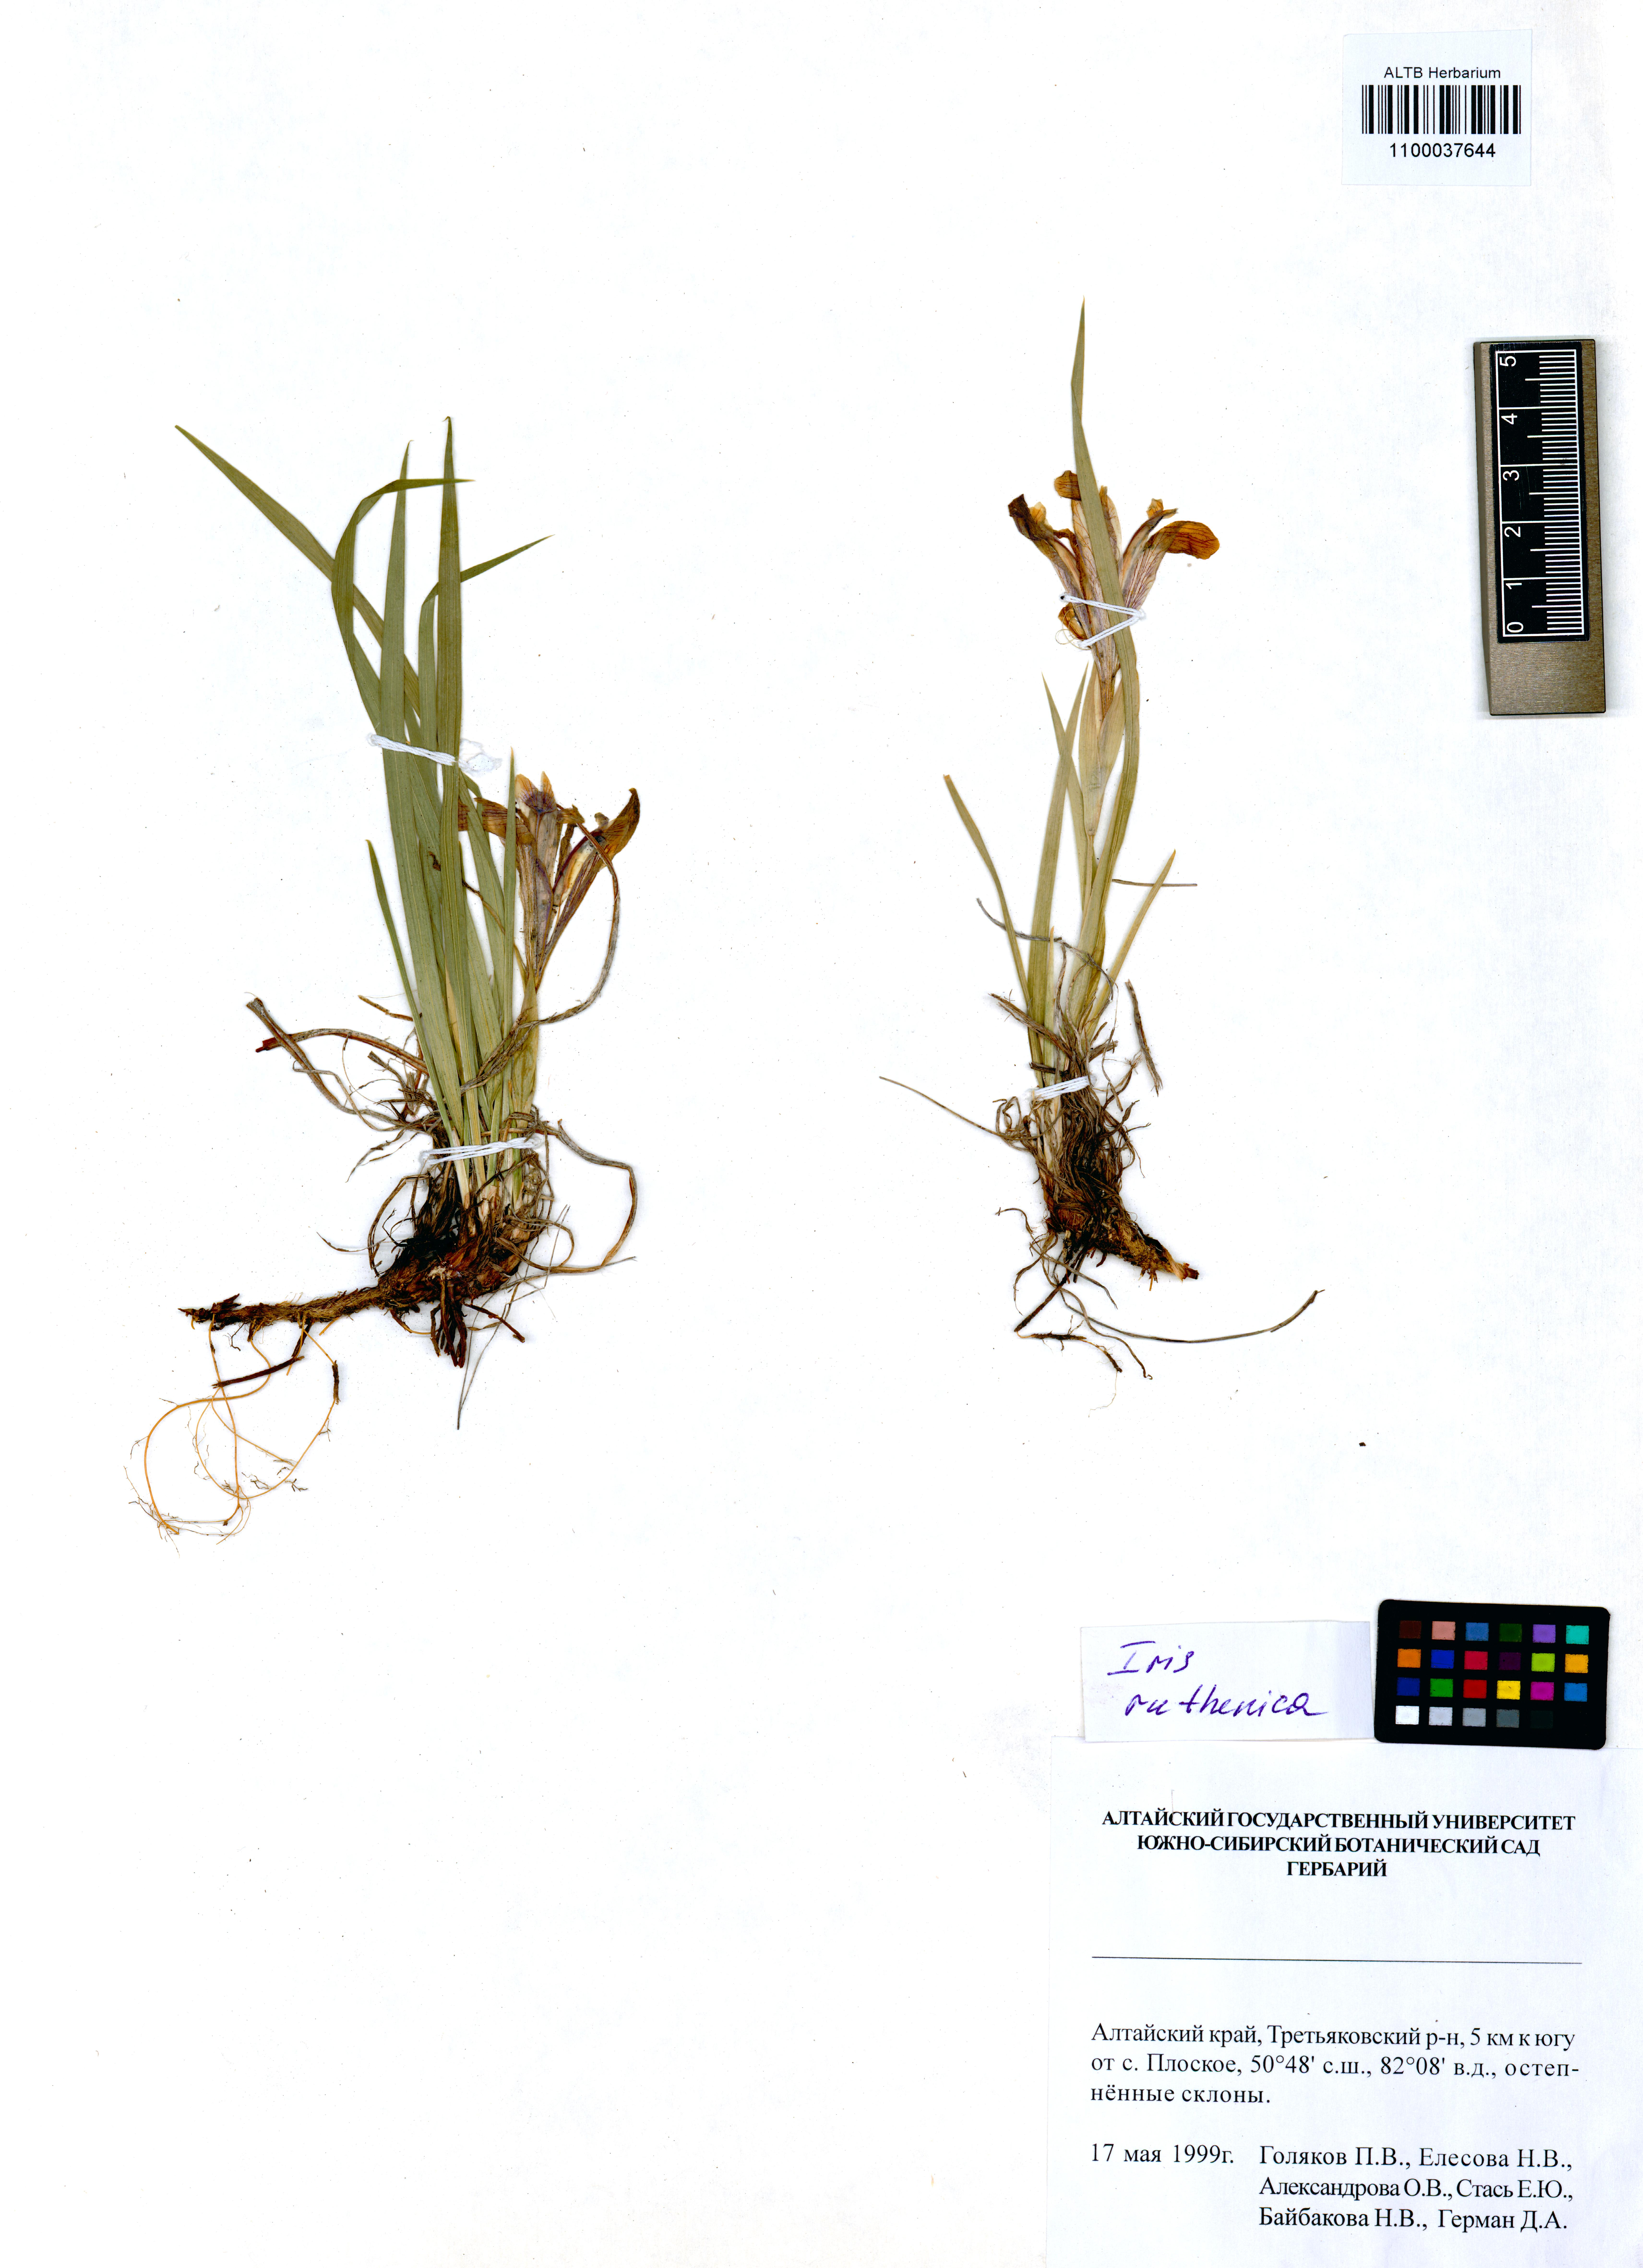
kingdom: Plantae
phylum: Tracheophyta
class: Liliopsida
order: Asparagales
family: Iridaceae
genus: Iris
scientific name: Iris ruthenica
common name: Purple-bract iris
